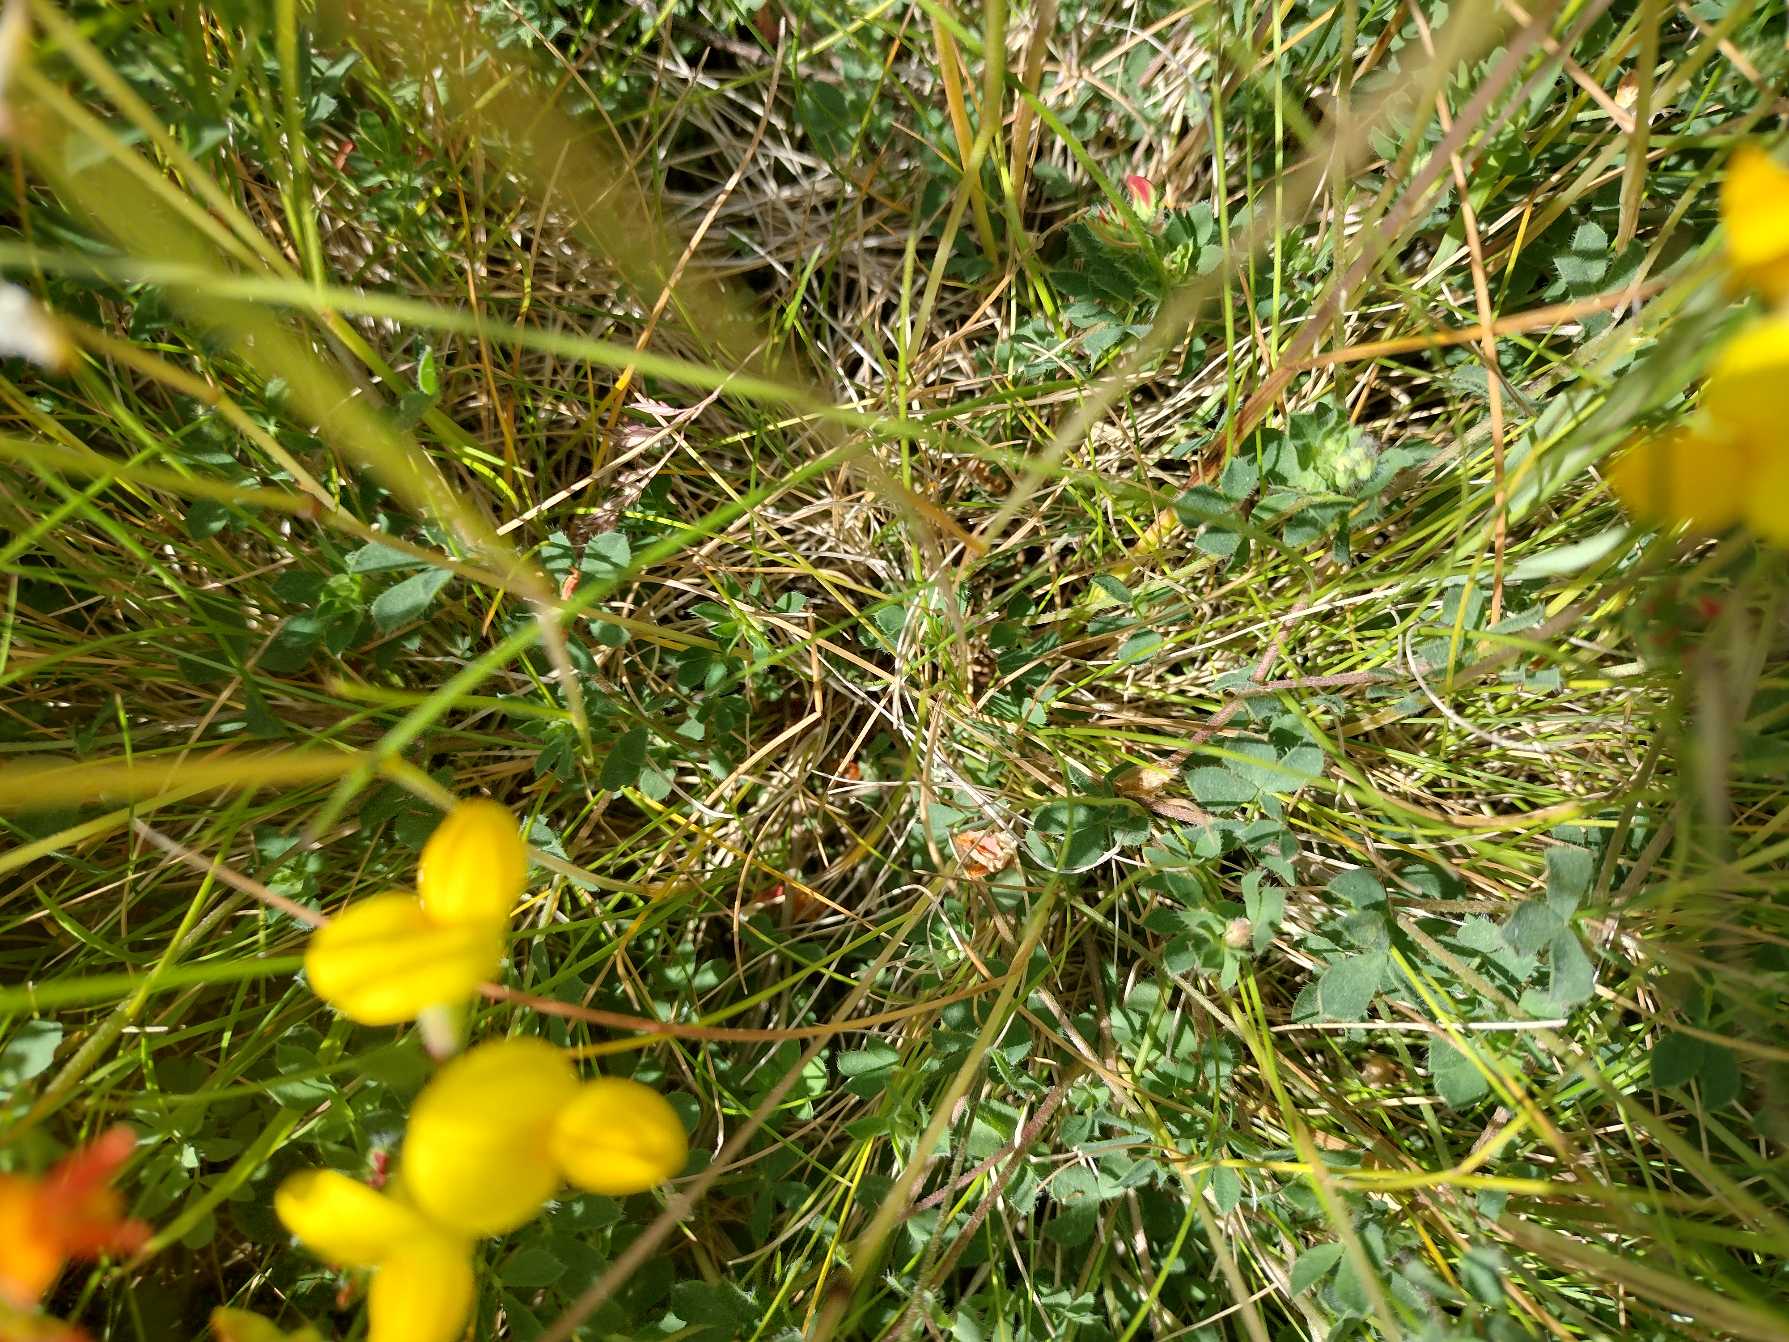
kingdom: Plantae
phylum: Tracheophyta
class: Magnoliopsida
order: Fabales
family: Fabaceae
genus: Lotus
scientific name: Lotus corniculatus
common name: Almindelig kællingetand
